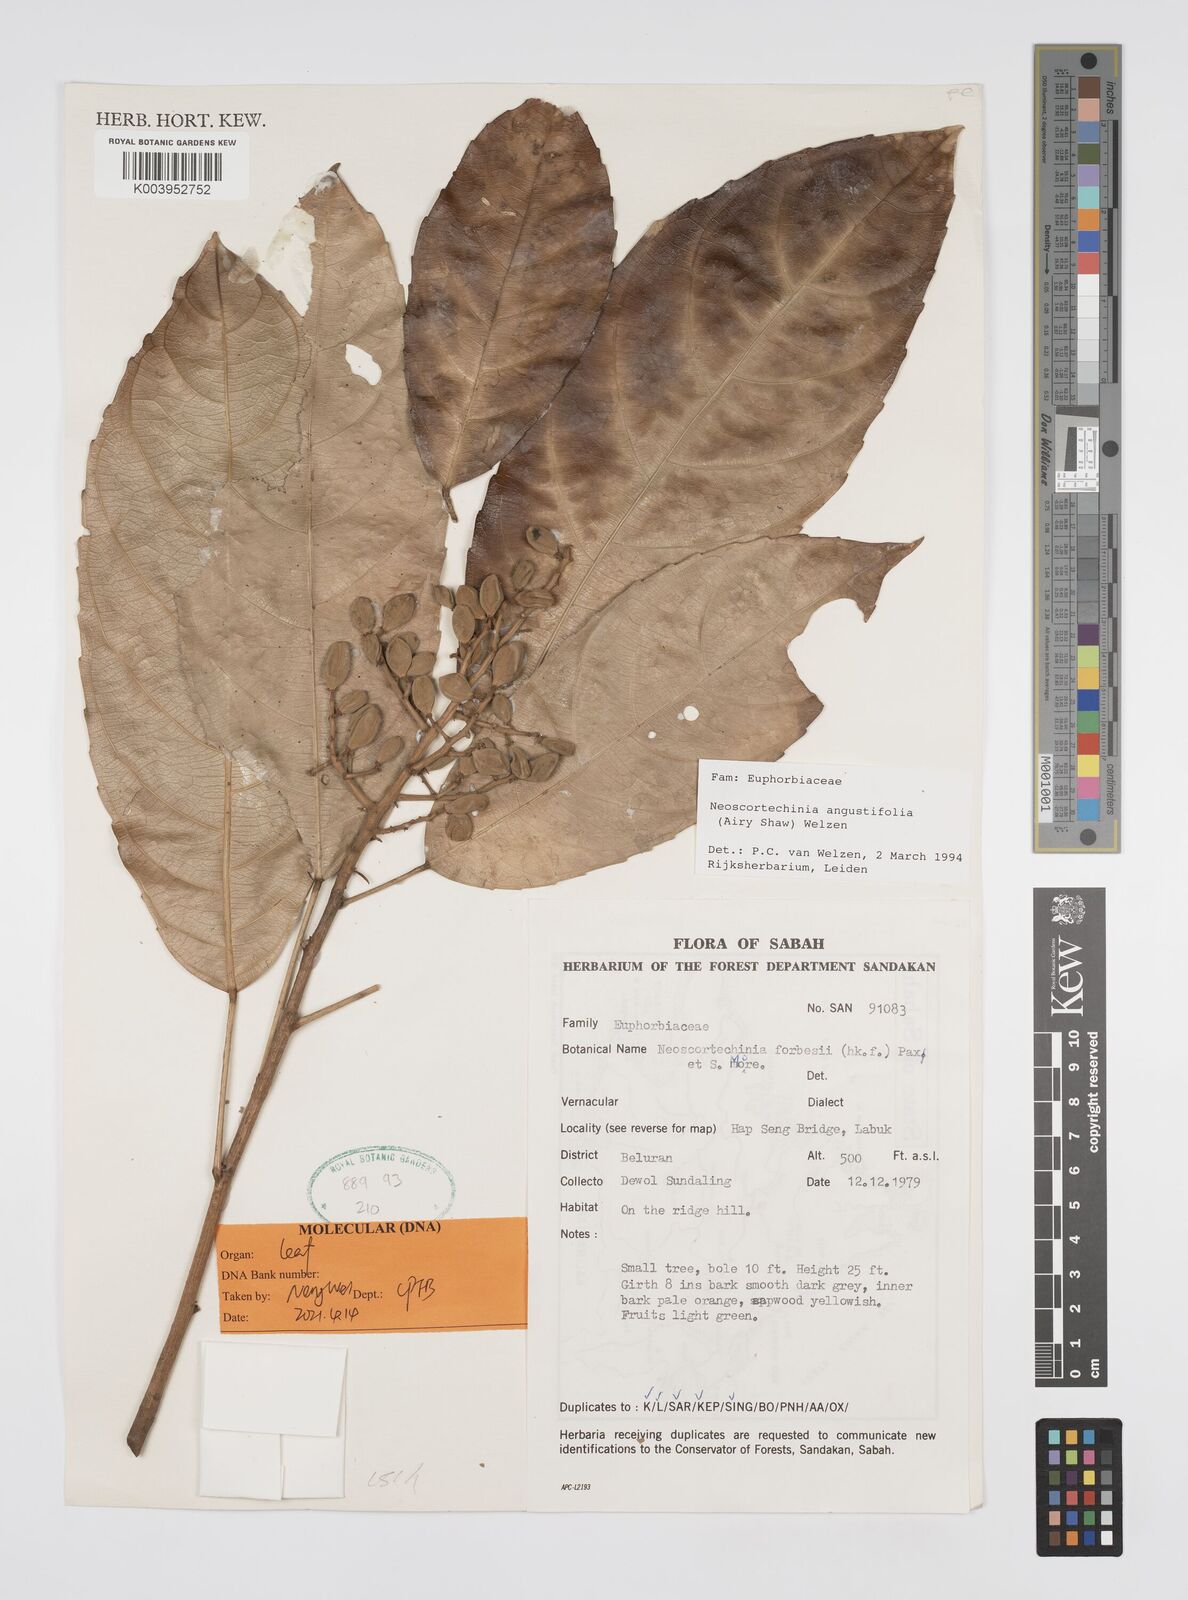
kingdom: Plantae
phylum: Tracheophyta
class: Magnoliopsida
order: Malpighiales
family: Euphorbiaceae
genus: Neoscortechinia
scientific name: Neoscortechinia angustifolia
